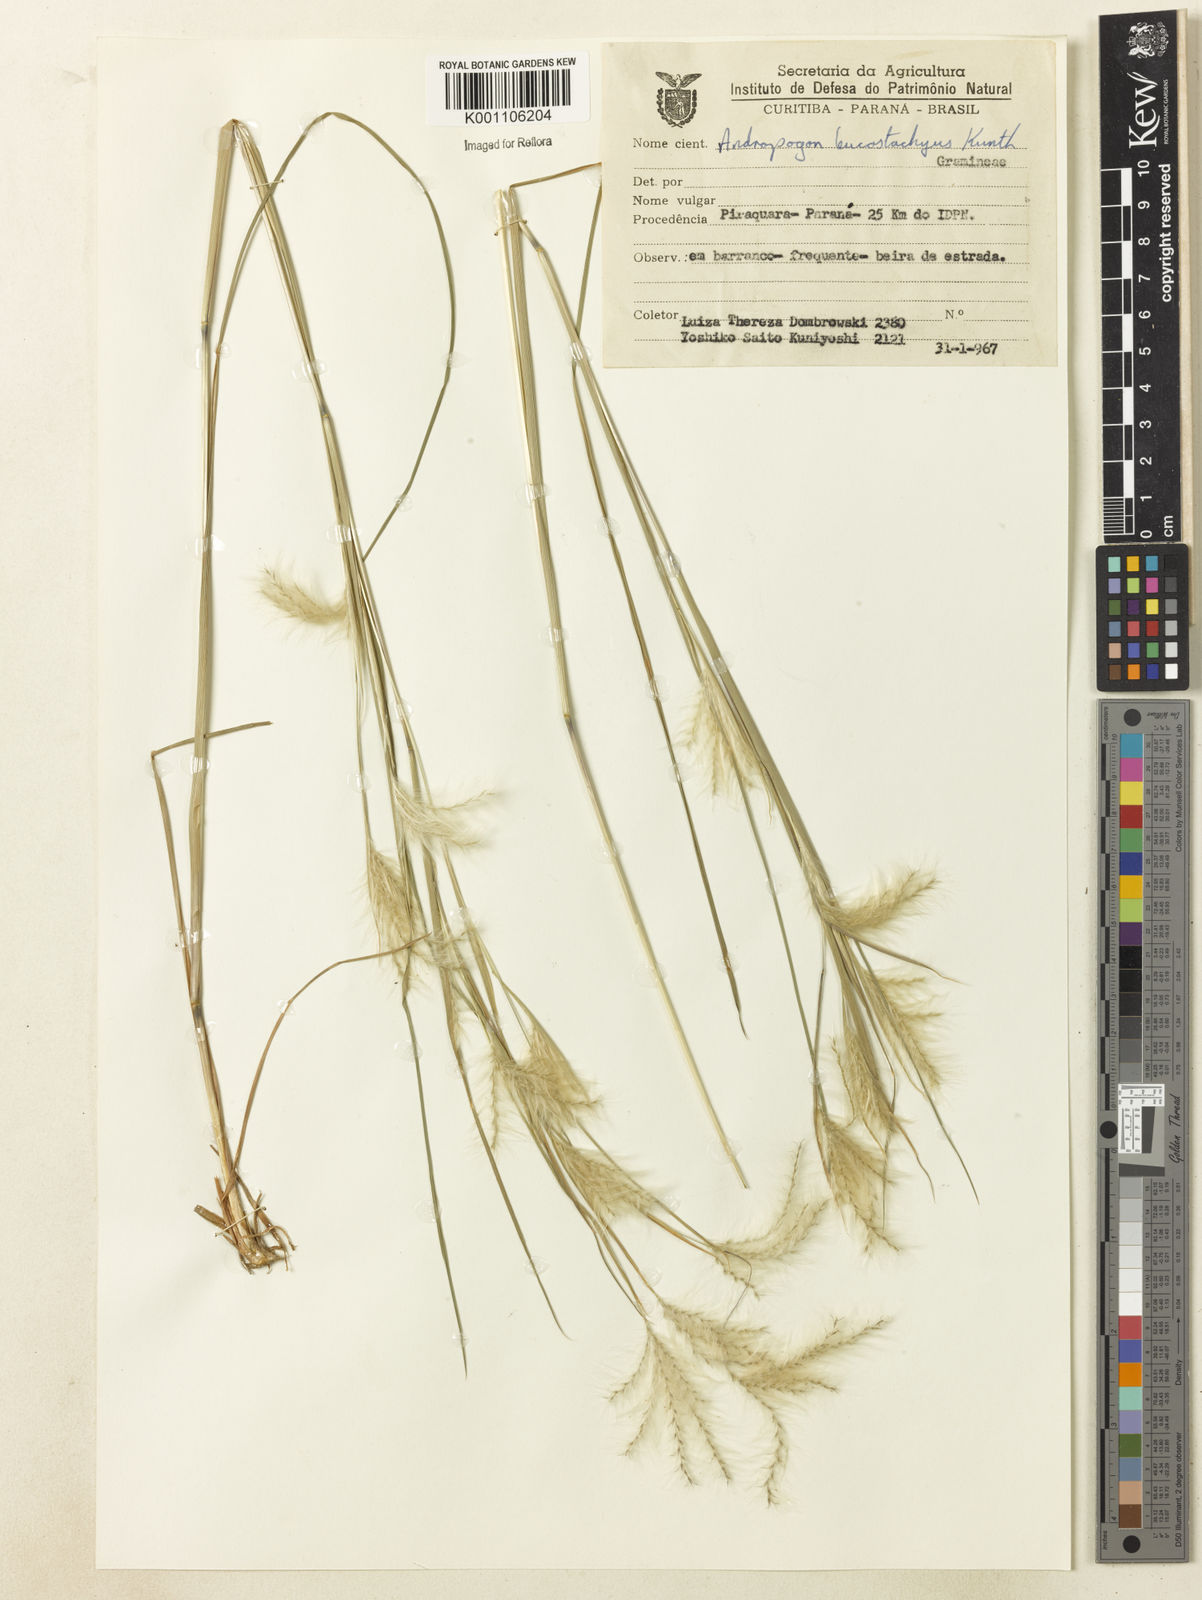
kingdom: Plantae
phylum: Tracheophyta
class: Liliopsida
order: Poales
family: Poaceae
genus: Andropogon
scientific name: Andropogon leucostachyus
